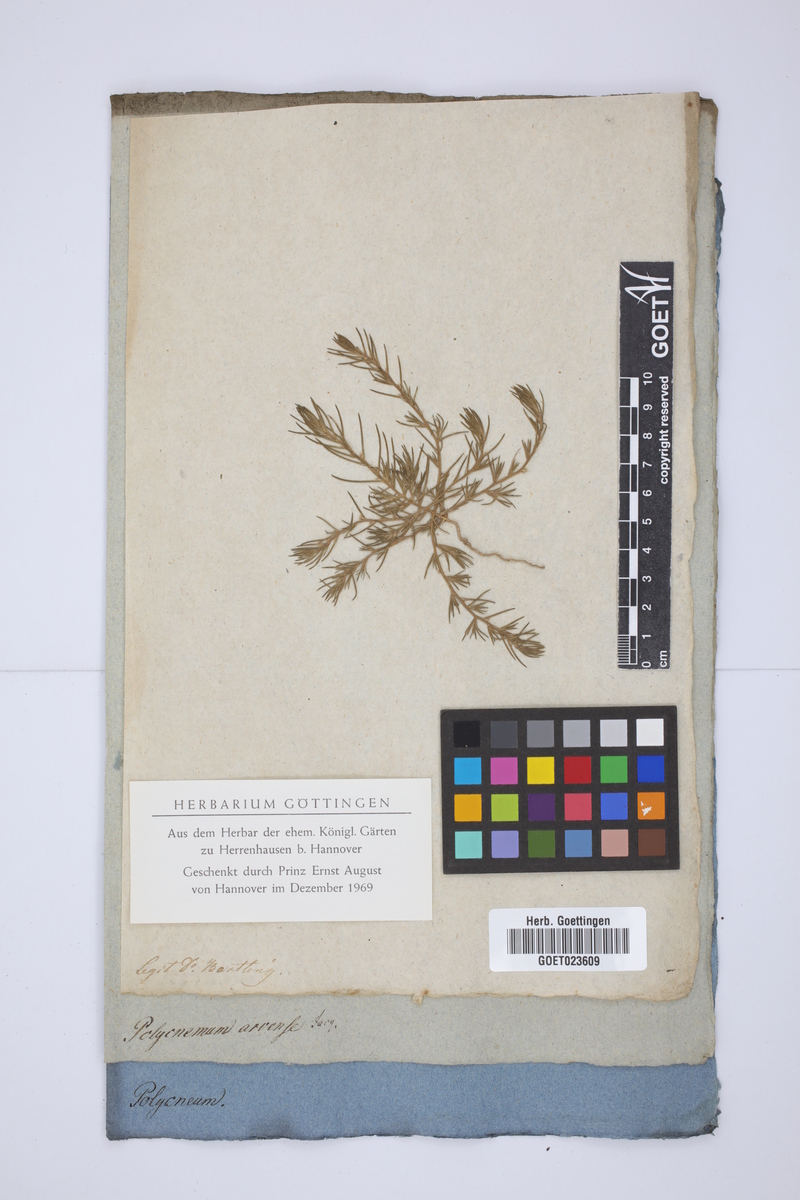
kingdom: Plantae
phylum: Tracheophyta
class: Magnoliopsida
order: Caryophyllales
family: Amaranthaceae
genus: Polycnemum
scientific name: Polycnemum arvense
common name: Soft needleleaf
